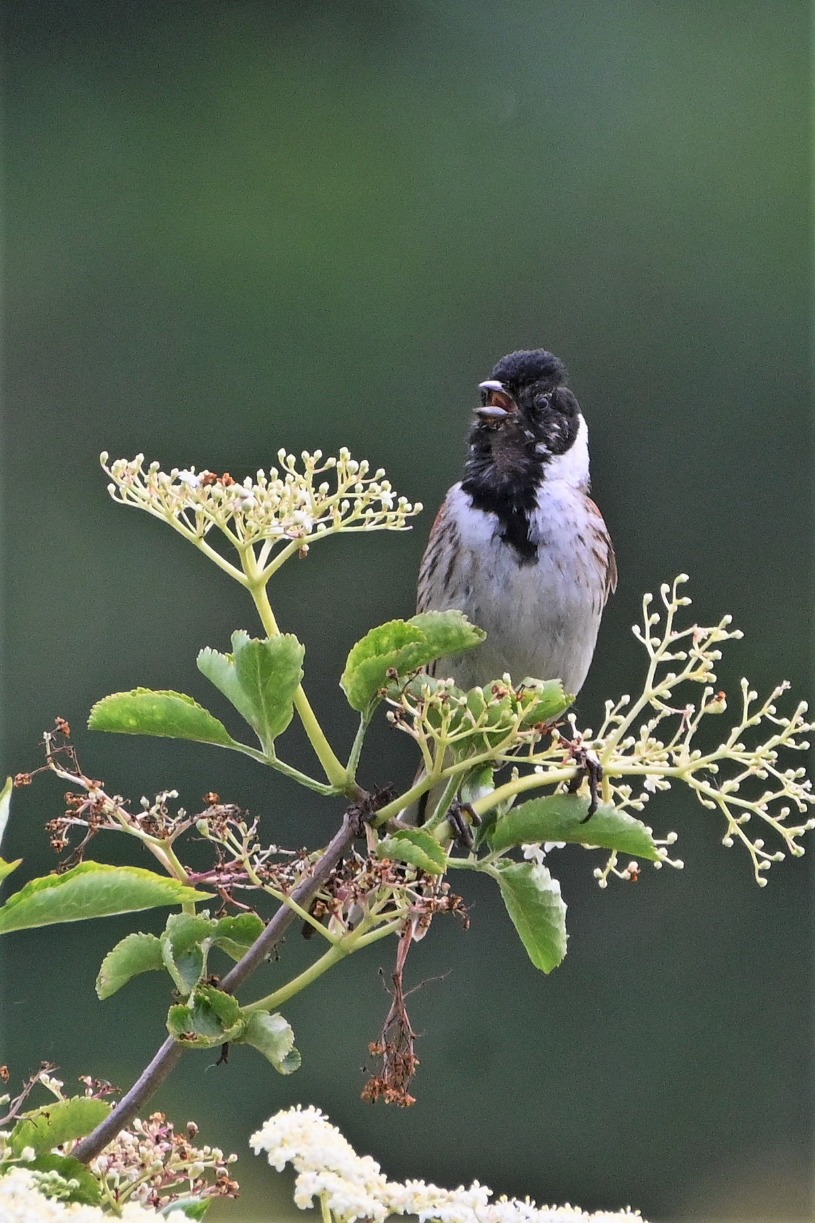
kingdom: Animalia
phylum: Chordata
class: Aves
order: Passeriformes
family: Emberizidae
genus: Emberiza
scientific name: Emberiza schoeniclus
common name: Rørspurv
